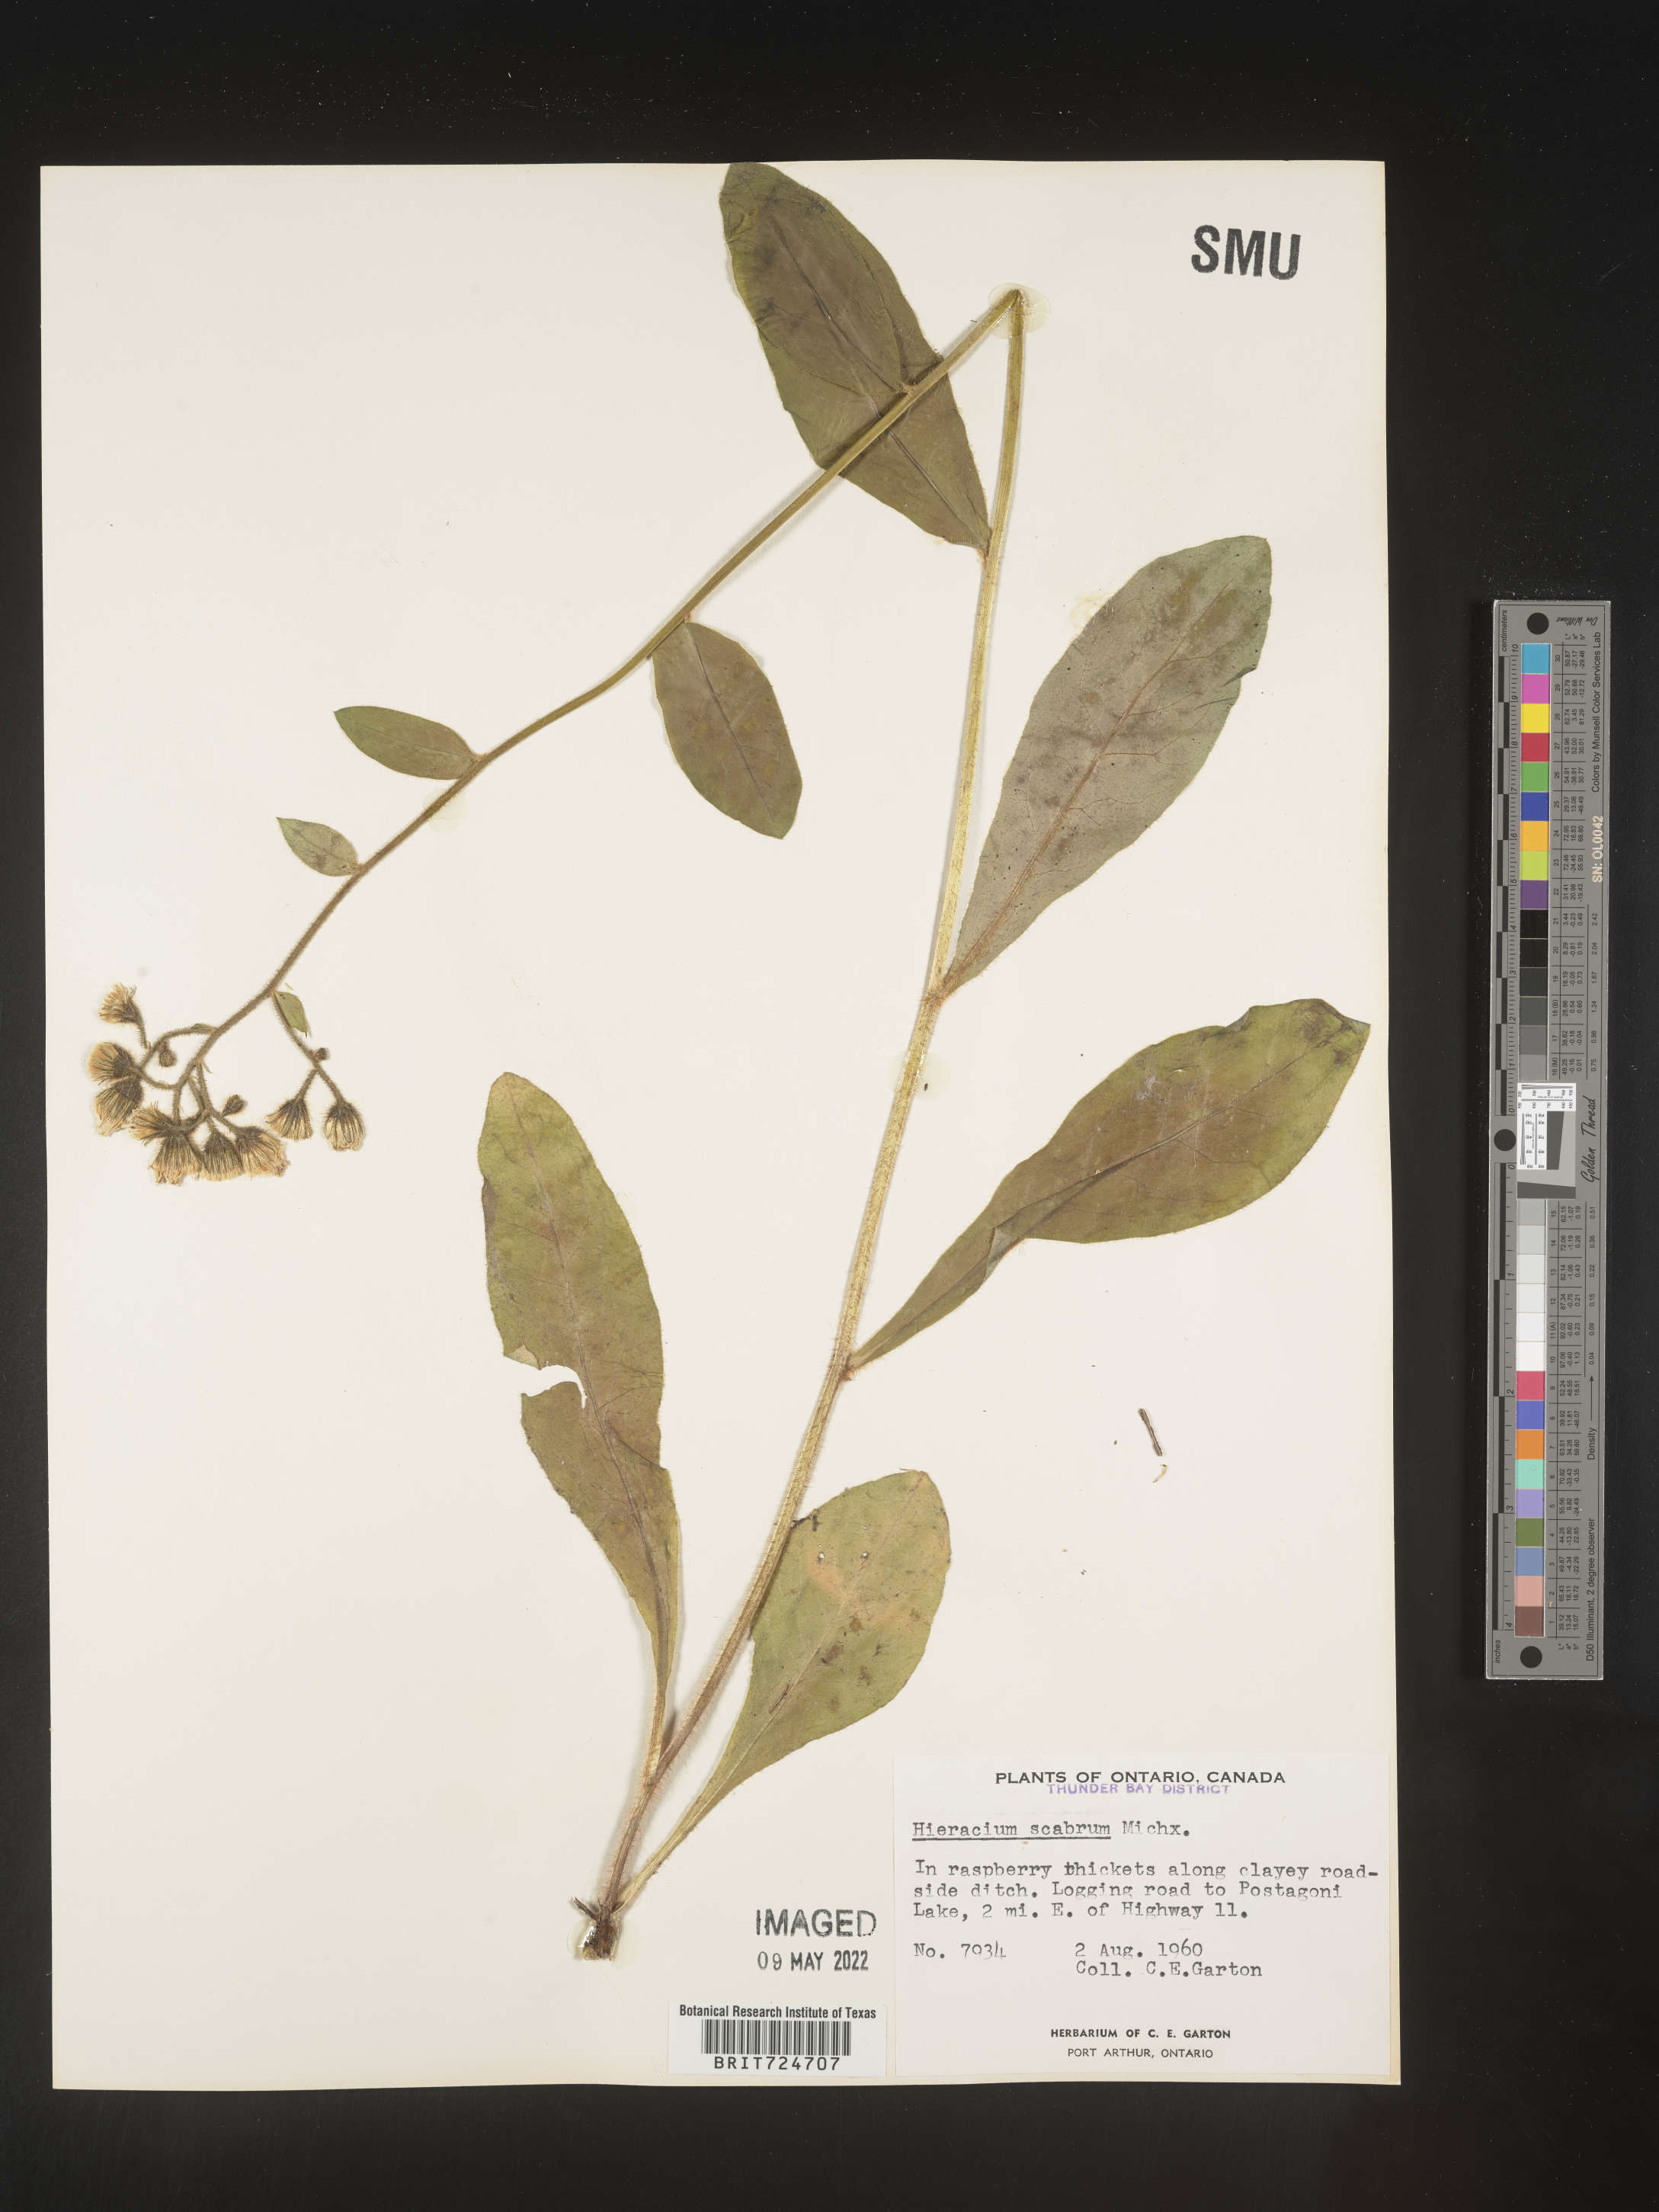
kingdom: Plantae
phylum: Tracheophyta
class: Magnoliopsida
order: Asterales
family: Asteraceae
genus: Hieracium
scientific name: Hieracium scabrum
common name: Rough hawkweed
